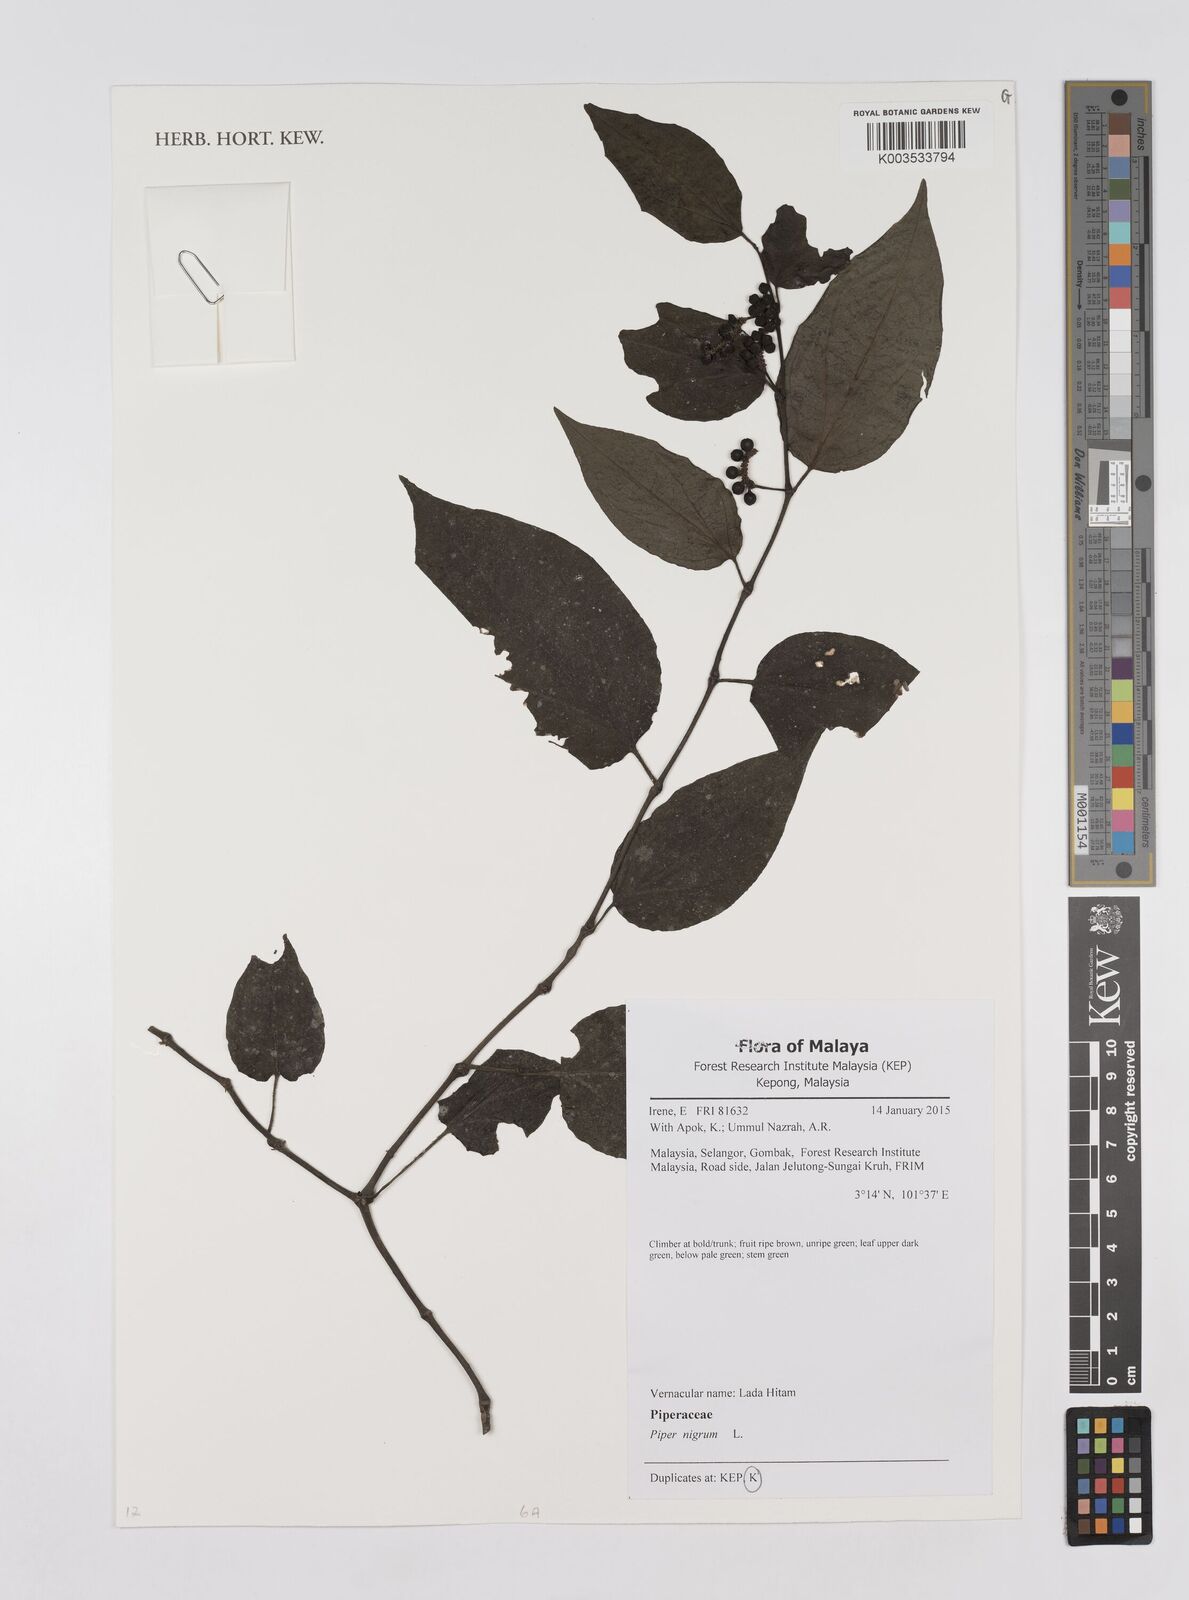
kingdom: Plantae
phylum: Tracheophyta
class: Magnoliopsida
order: Piperales
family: Piperaceae
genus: Piper
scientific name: Piper nigrum
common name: Black pepper
